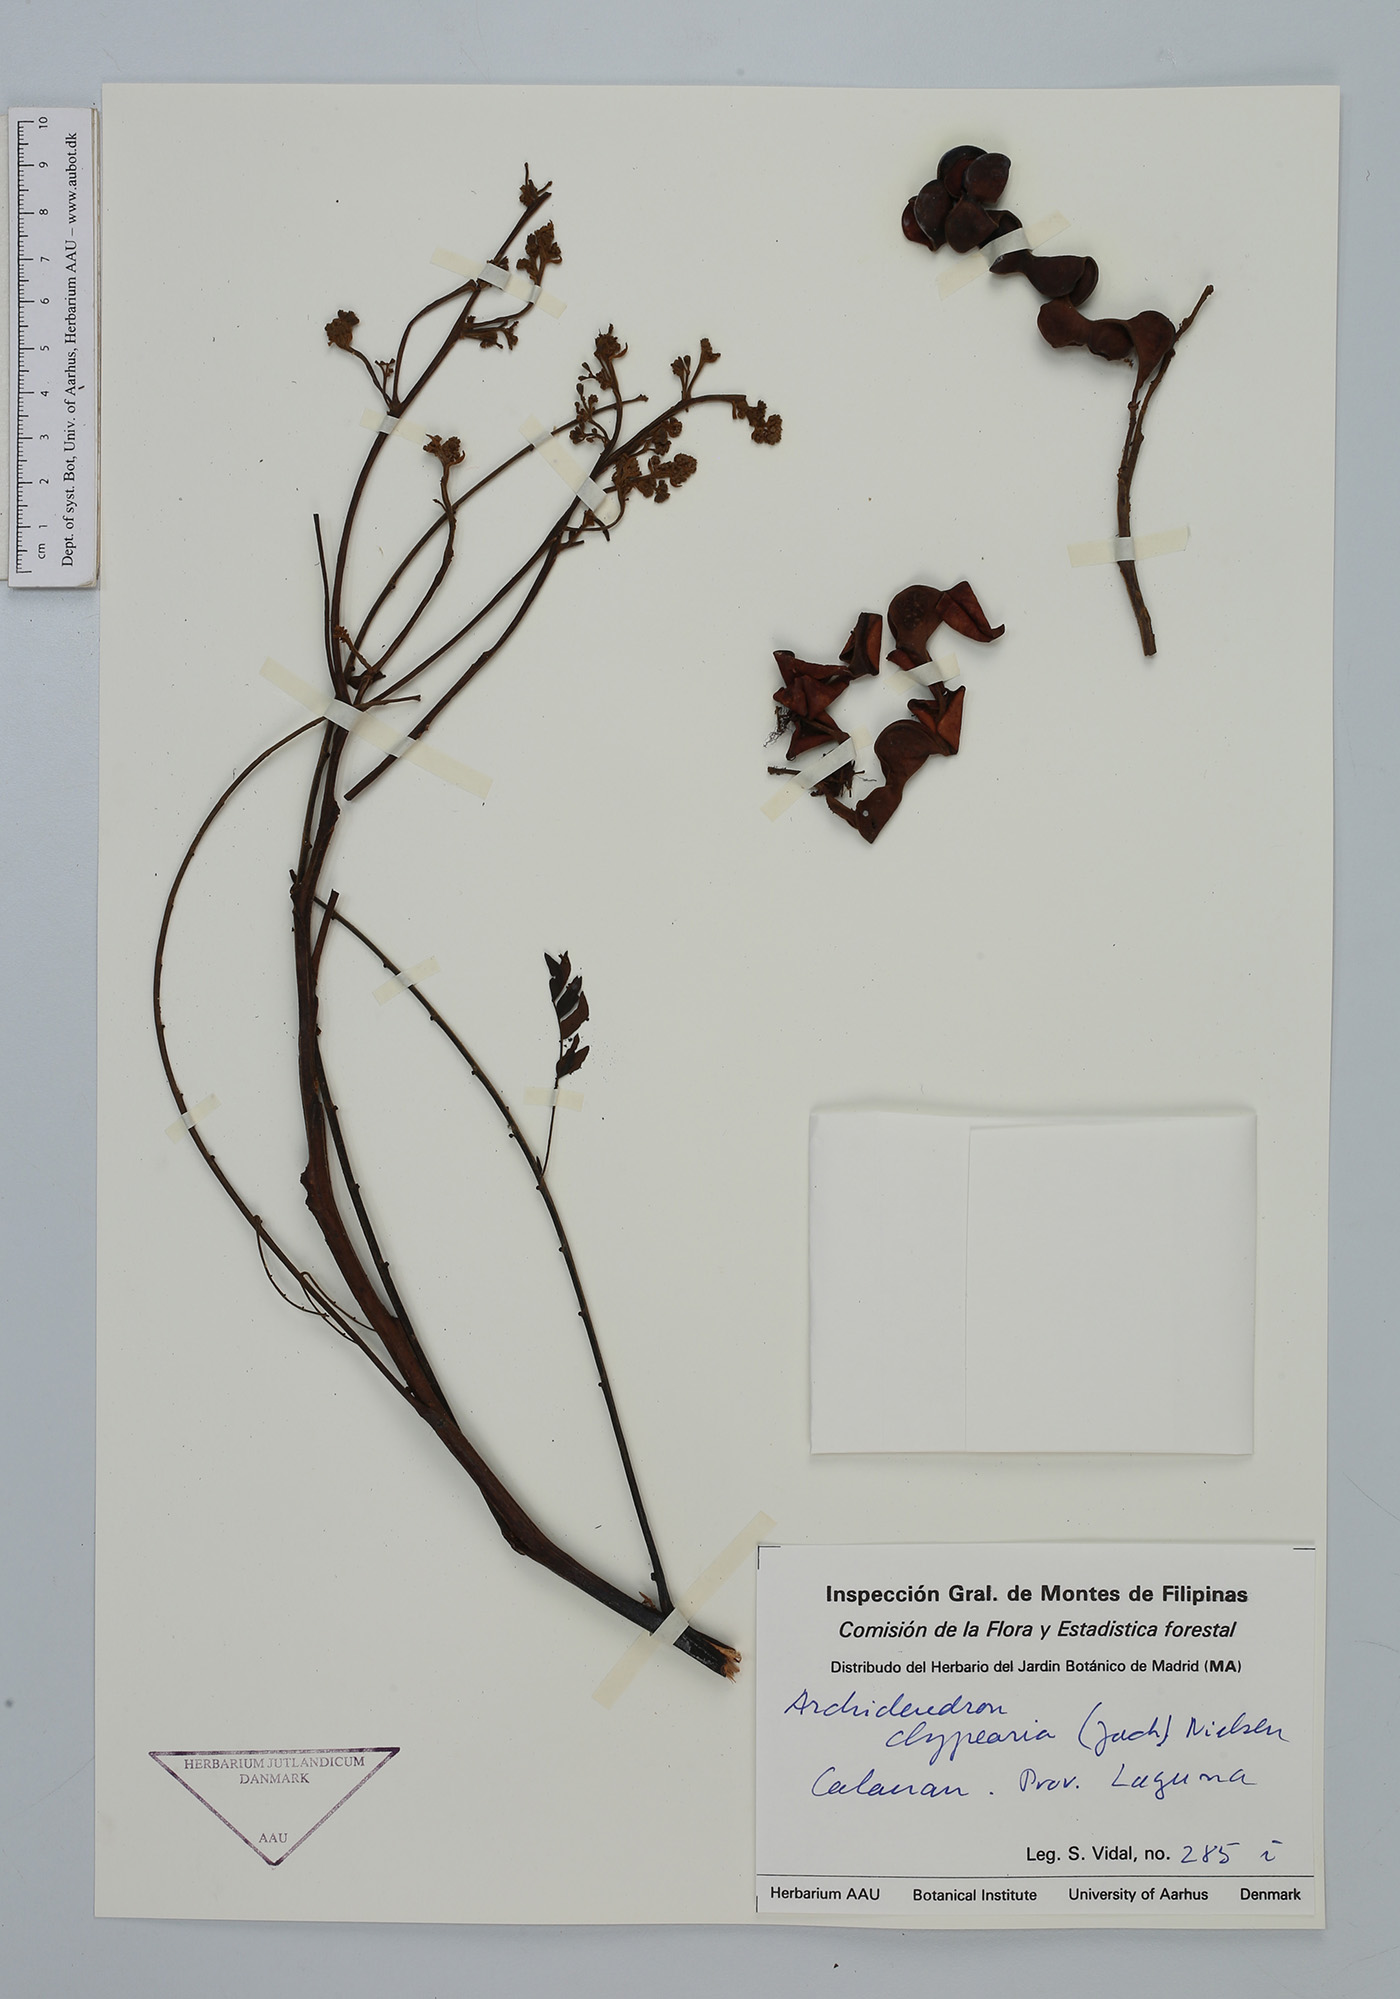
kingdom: Plantae
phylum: Tracheophyta
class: Magnoliopsida
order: Fabales
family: Fabaceae
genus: Archidendron
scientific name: Archidendron clypearia
